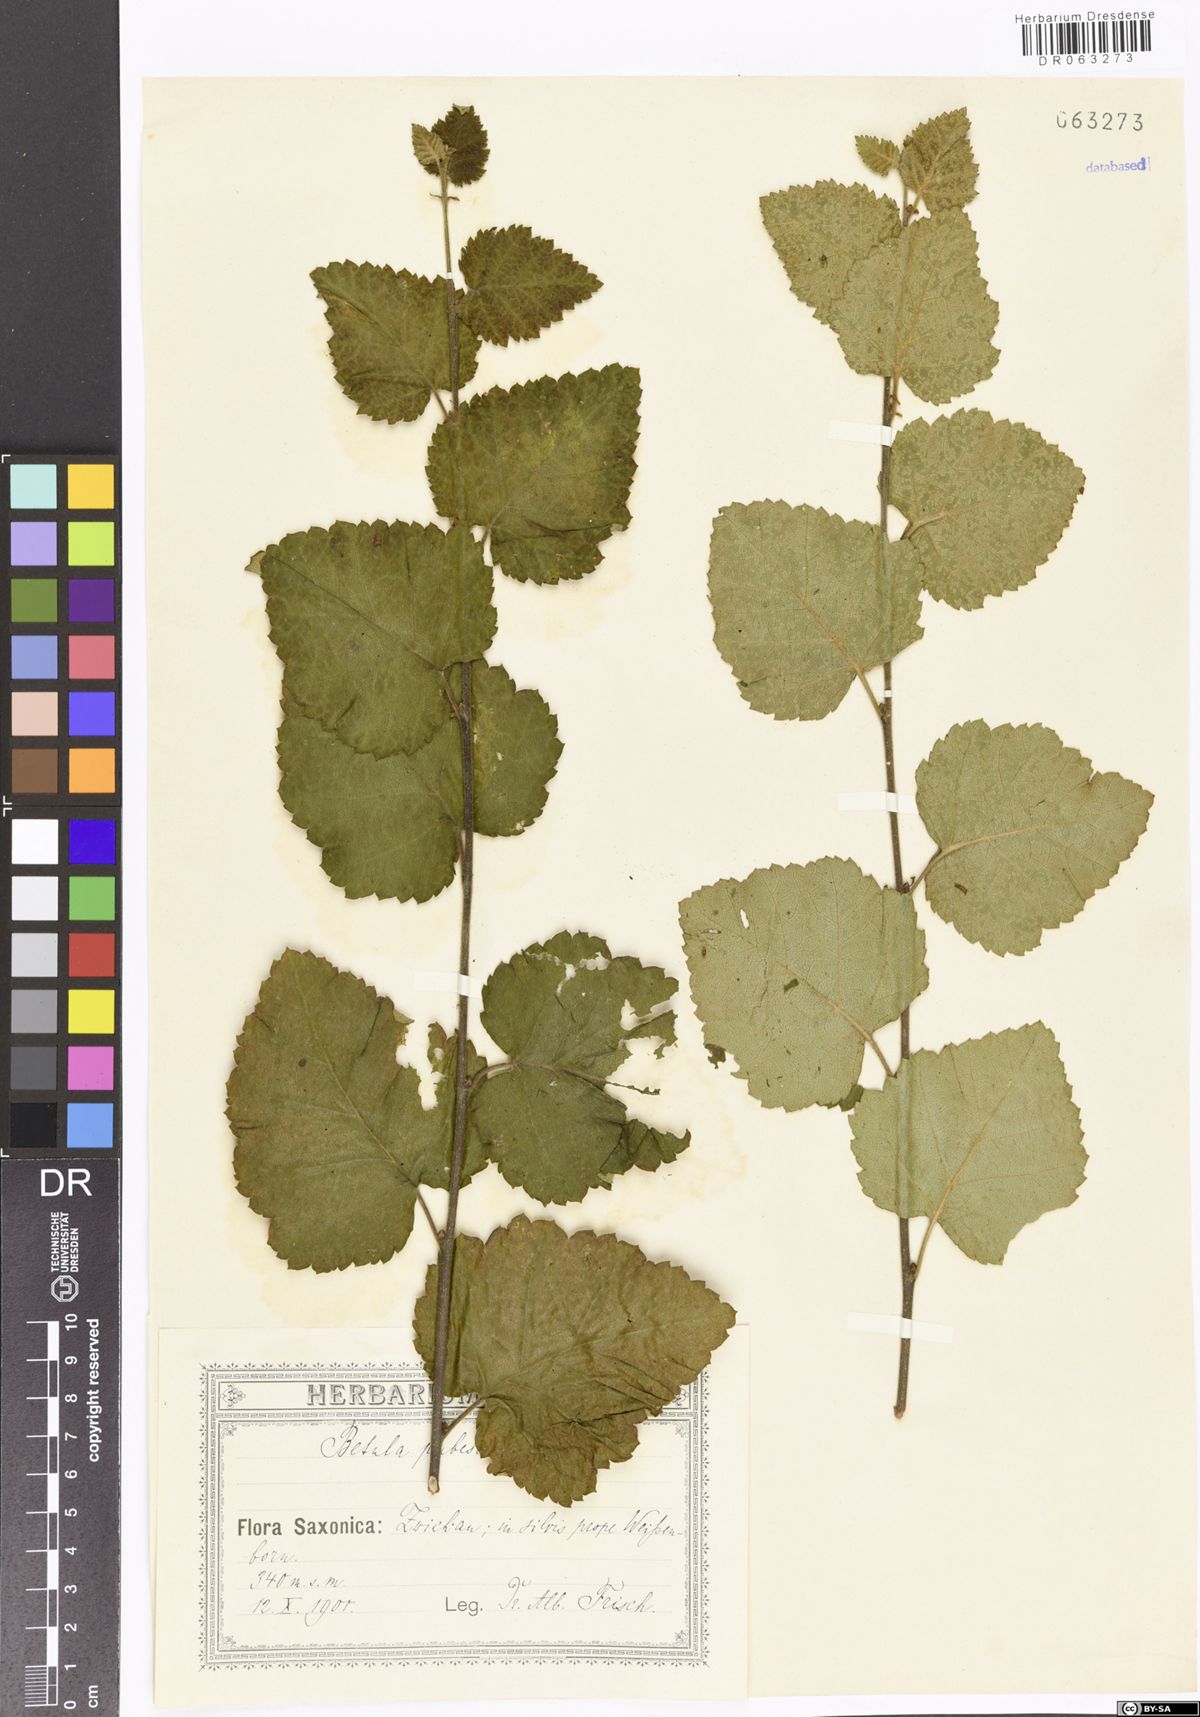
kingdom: Plantae
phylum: Tracheophyta
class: Magnoliopsida
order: Fagales
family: Betulaceae
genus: Betula
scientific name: Betula pubescens
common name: Downy birch
